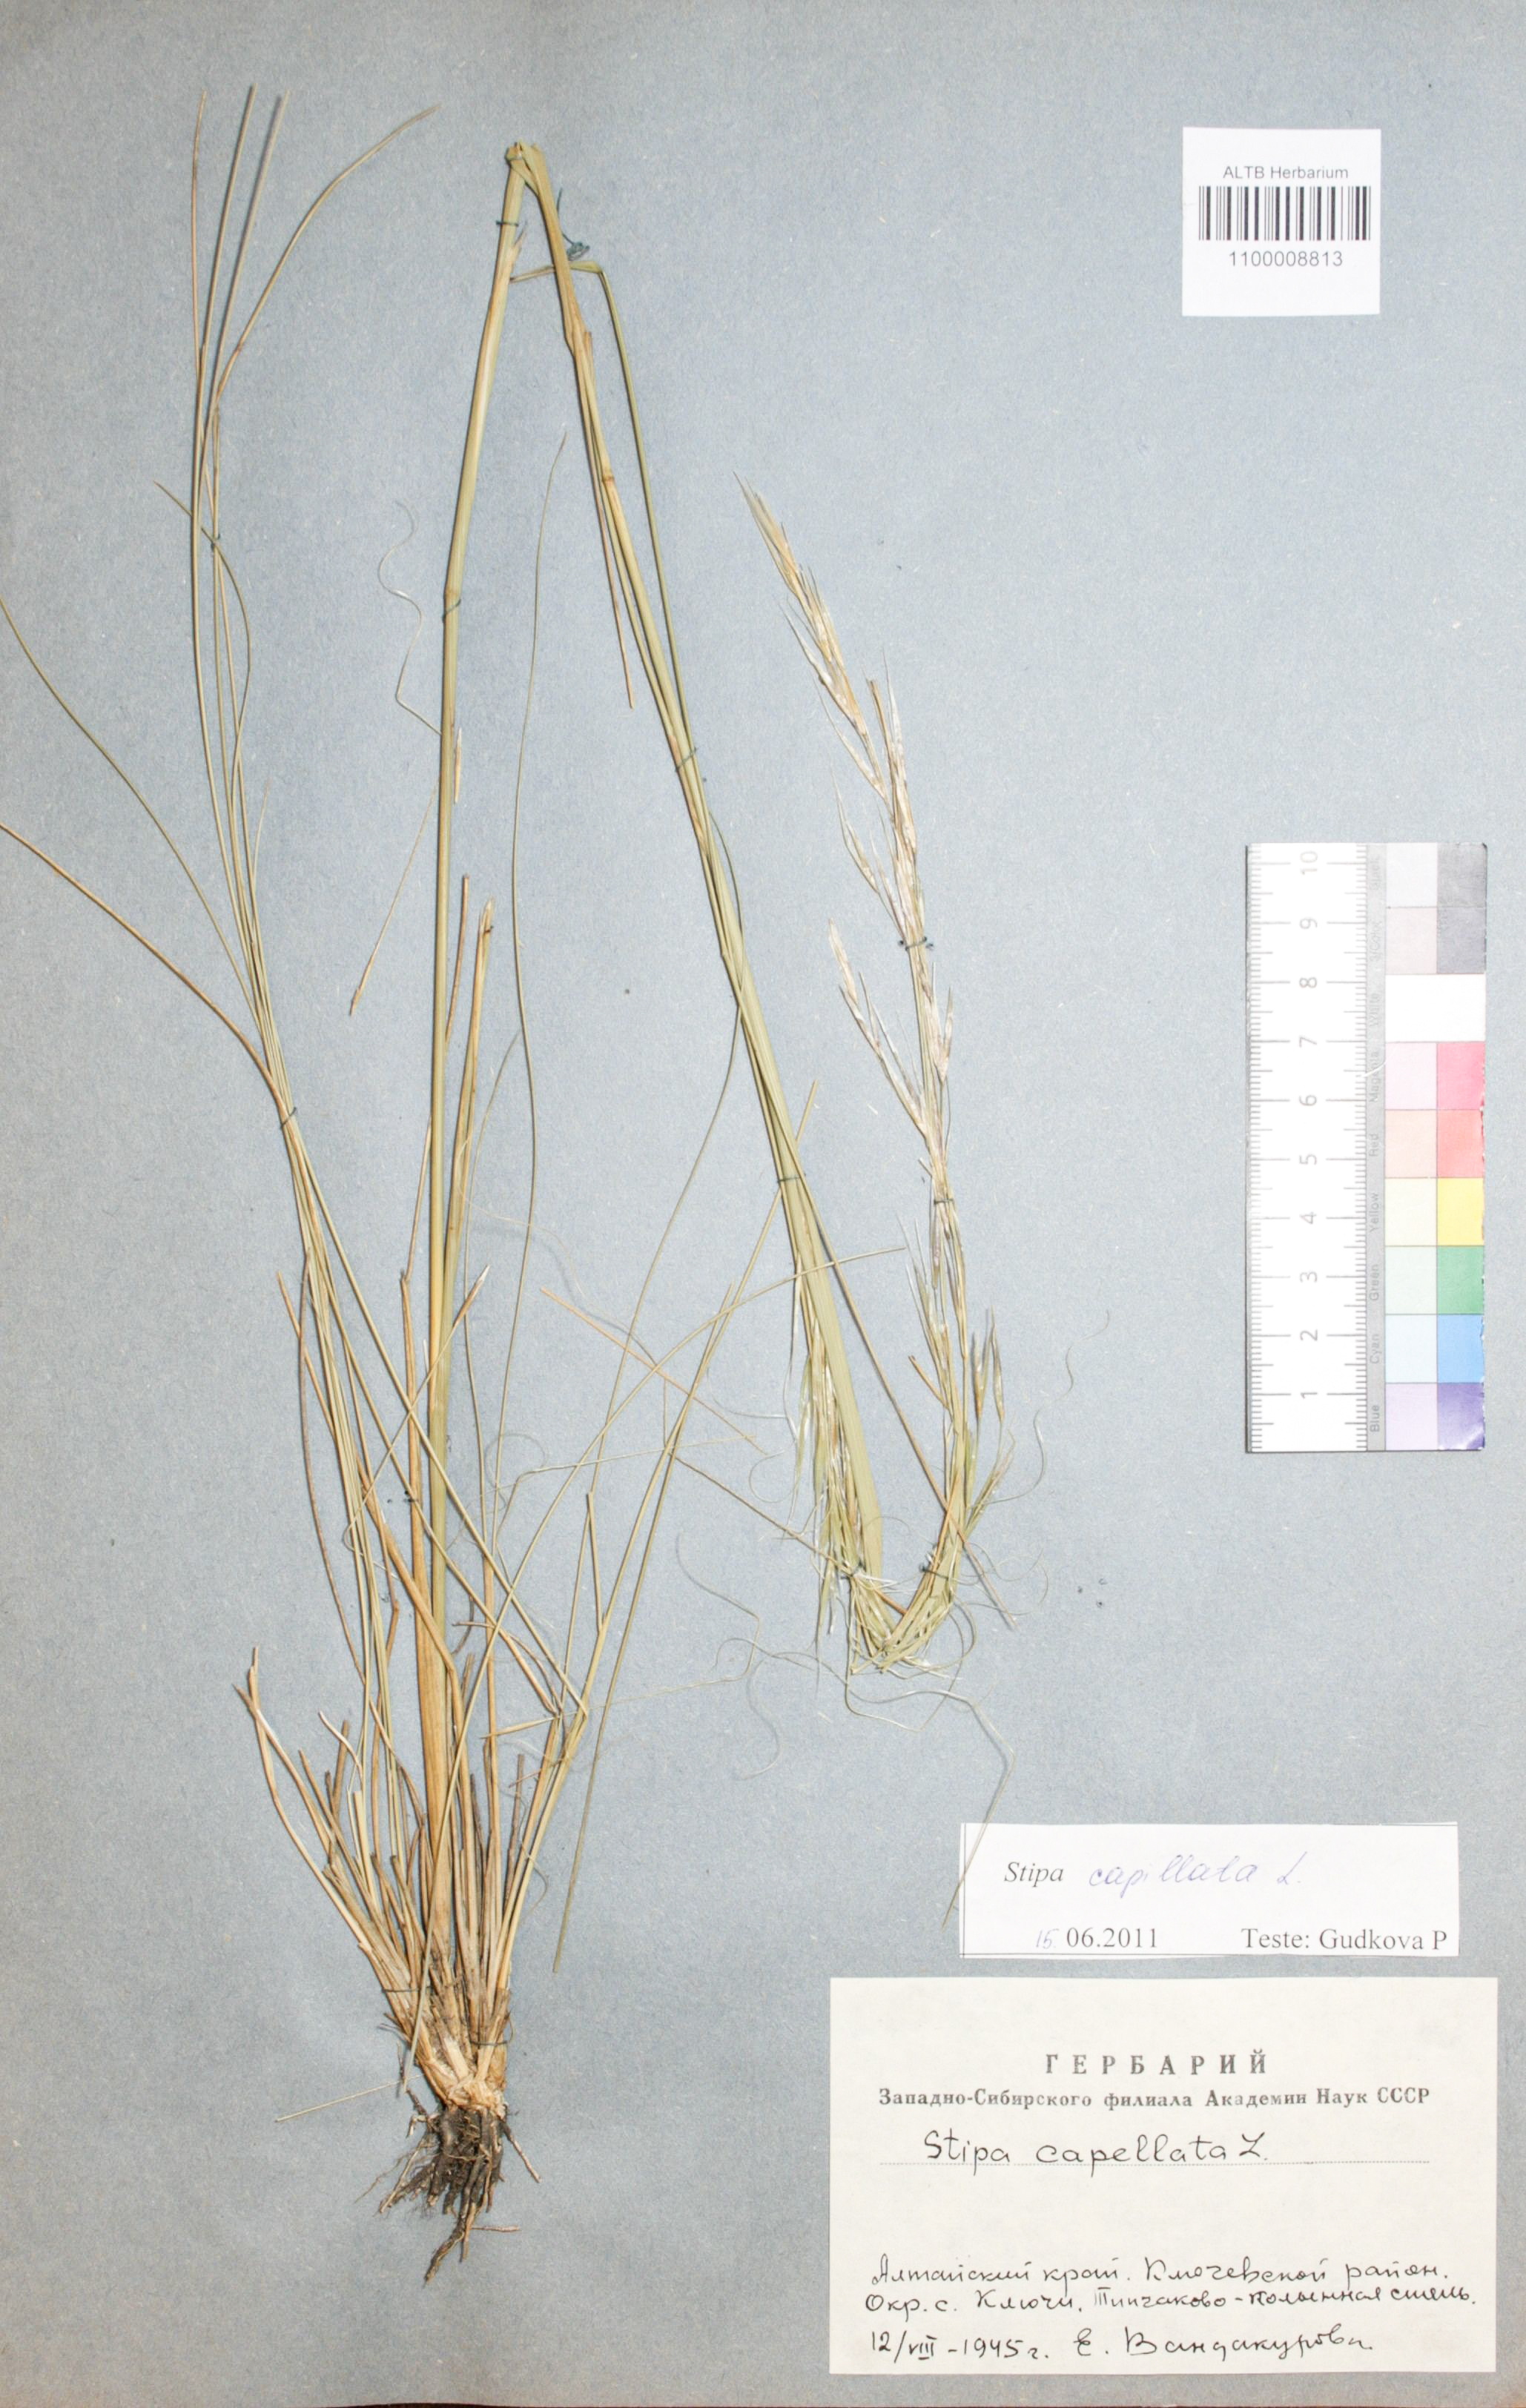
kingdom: Plantae
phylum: Tracheophyta
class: Liliopsida
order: Poales
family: Poaceae
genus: Stipa
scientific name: Stipa capillata
